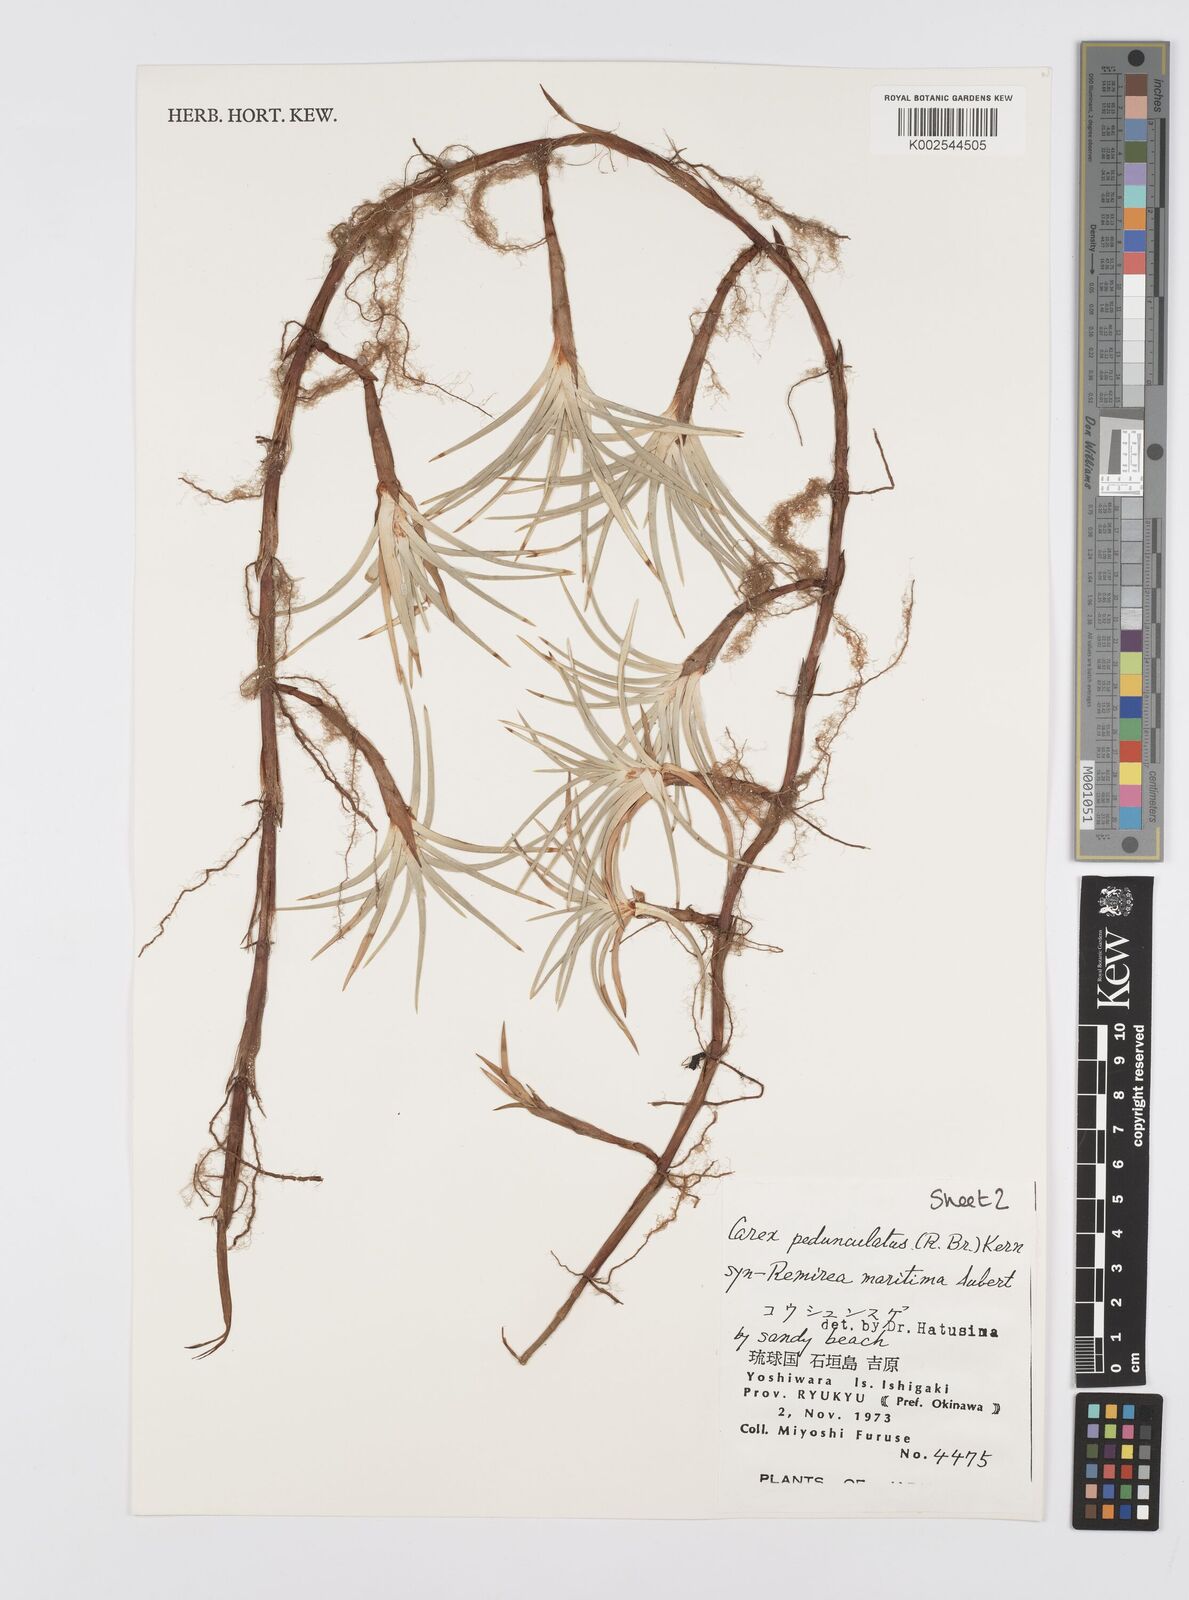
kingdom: Plantae
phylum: Tracheophyta
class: Liliopsida
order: Poales
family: Cyperaceae
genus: Cyperus
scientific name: Cyperus
